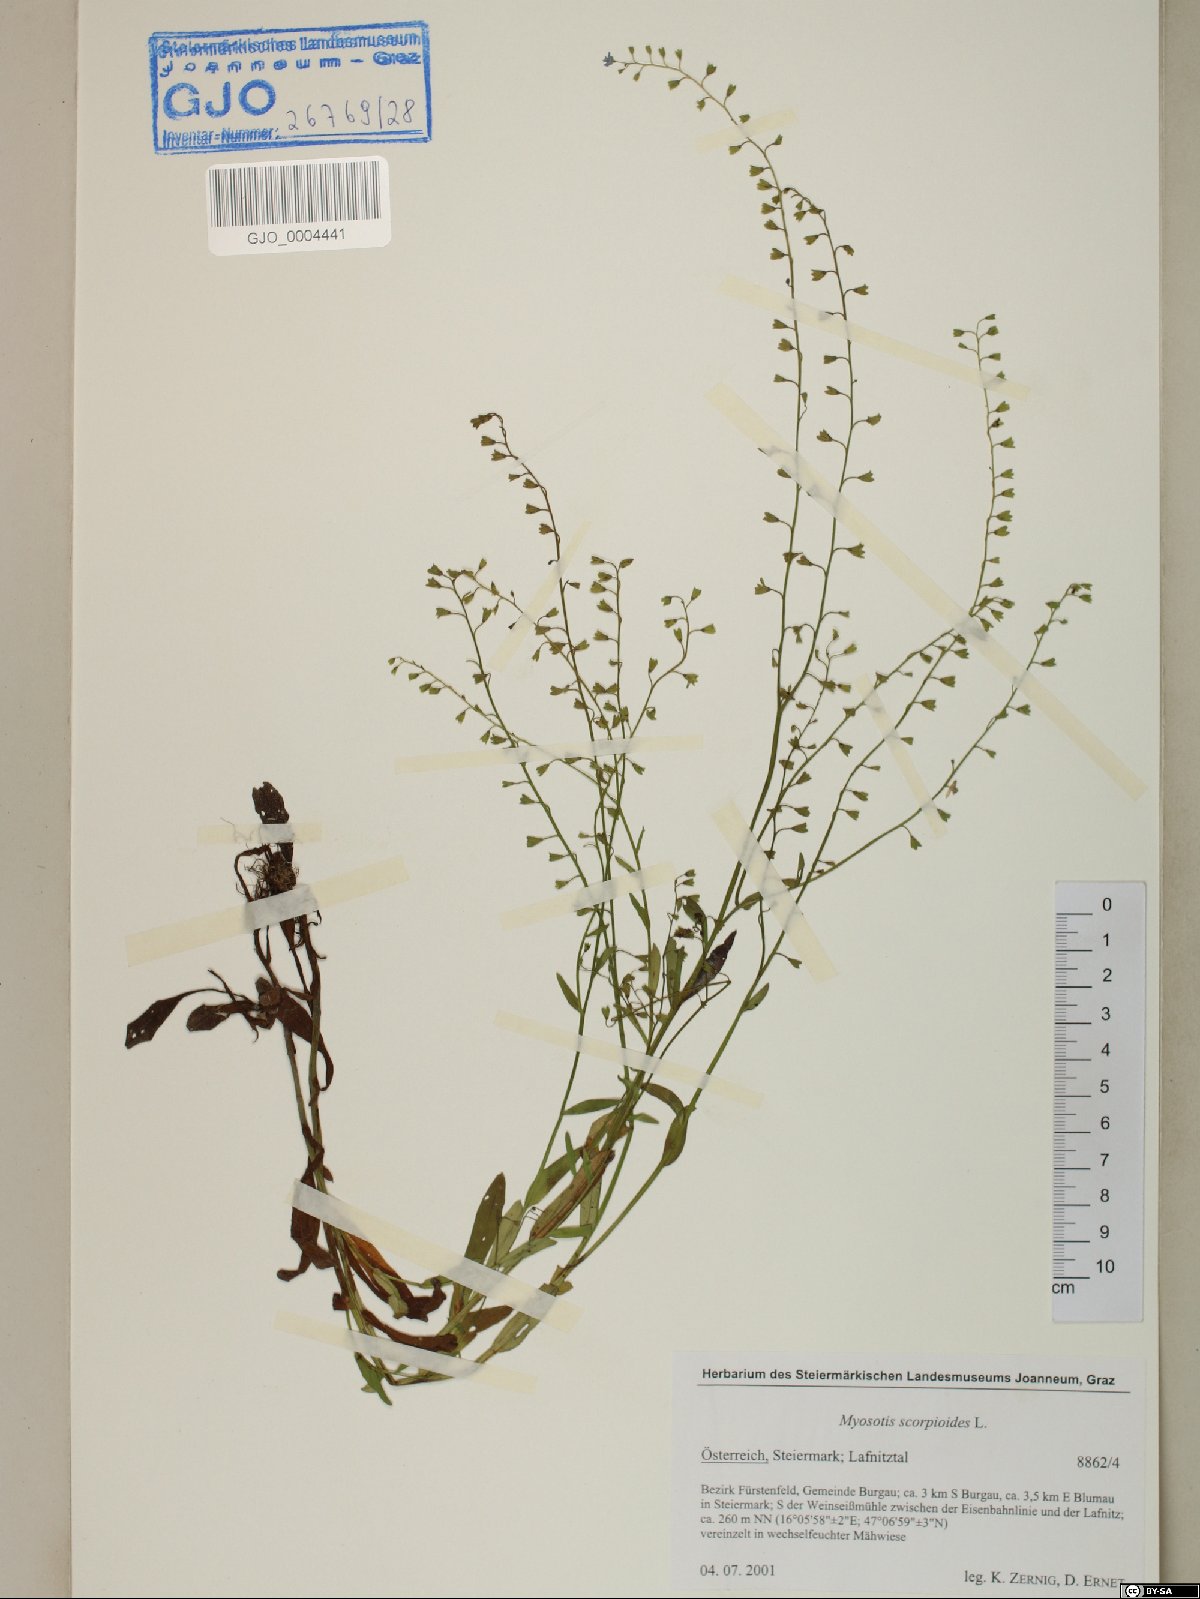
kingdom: Plantae
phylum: Tracheophyta
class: Magnoliopsida
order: Boraginales
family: Boraginaceae
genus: Myosotis
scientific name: Myosotis scorpioides
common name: Water forget-me-not
